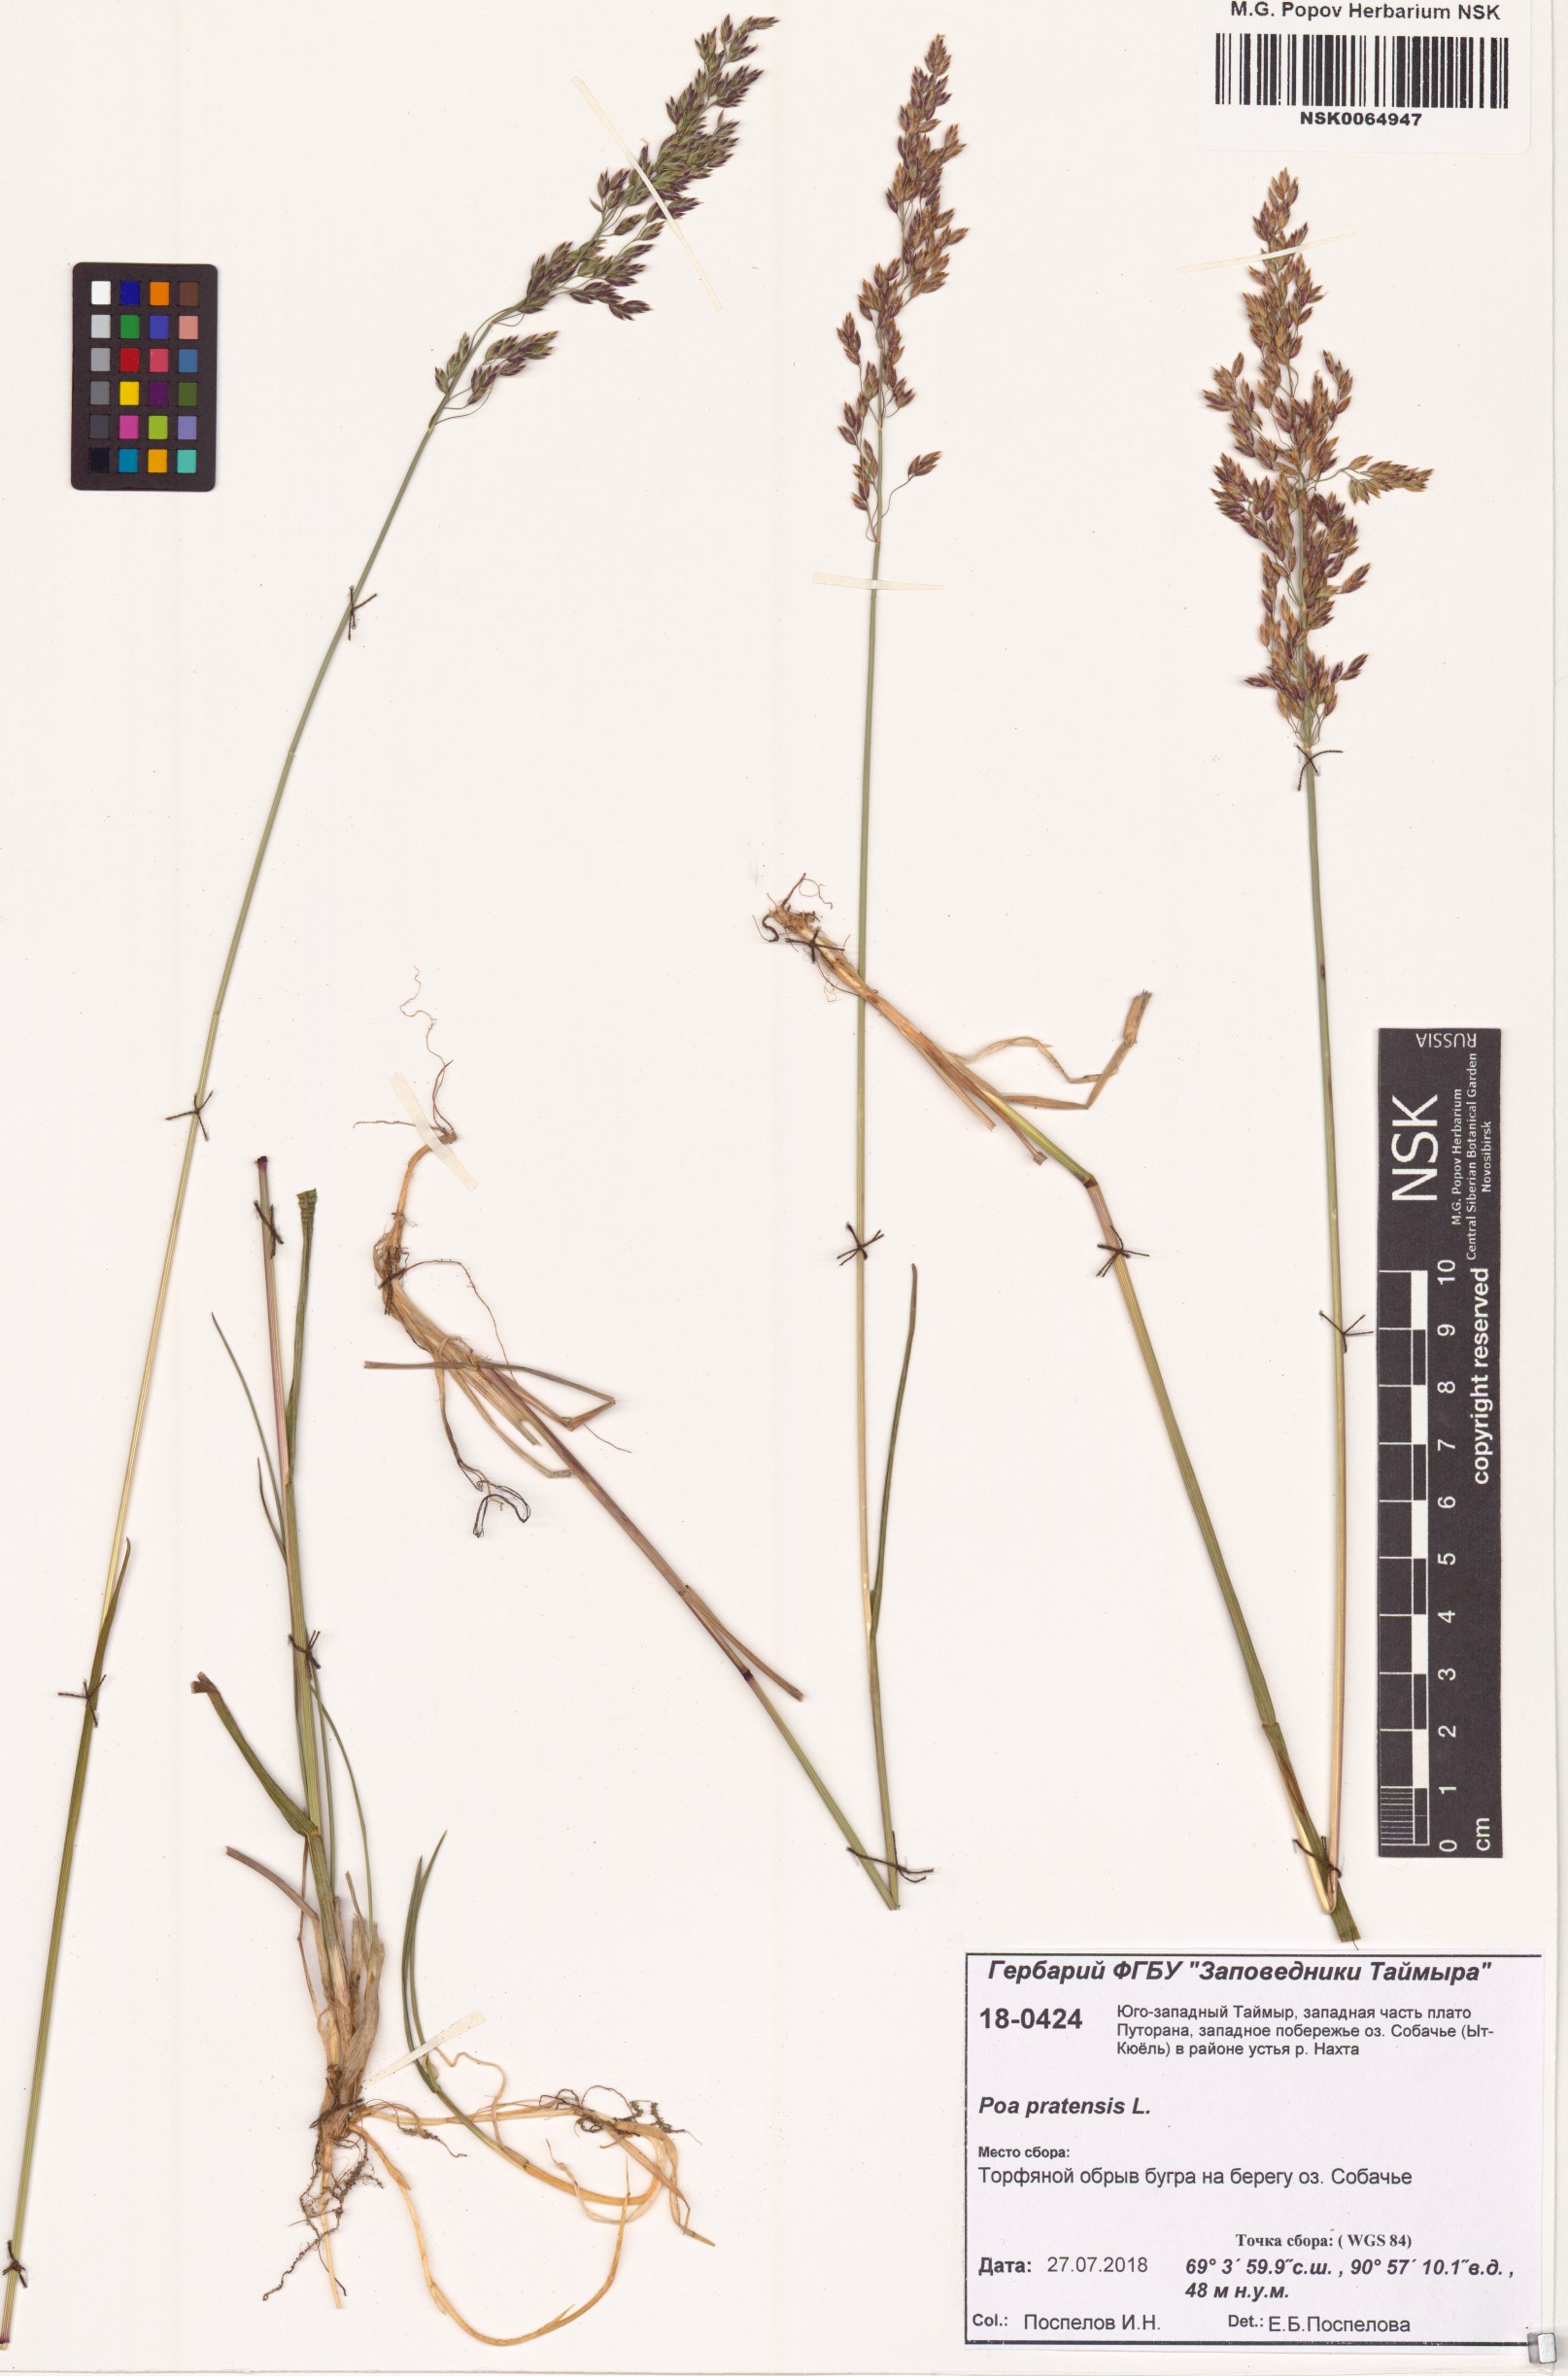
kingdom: Plantae
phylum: Tracheophyta
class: Liliopsida
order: Poales
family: Poaceae
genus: Poa
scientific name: Poa pratensis
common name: Kentucky bluegrass
